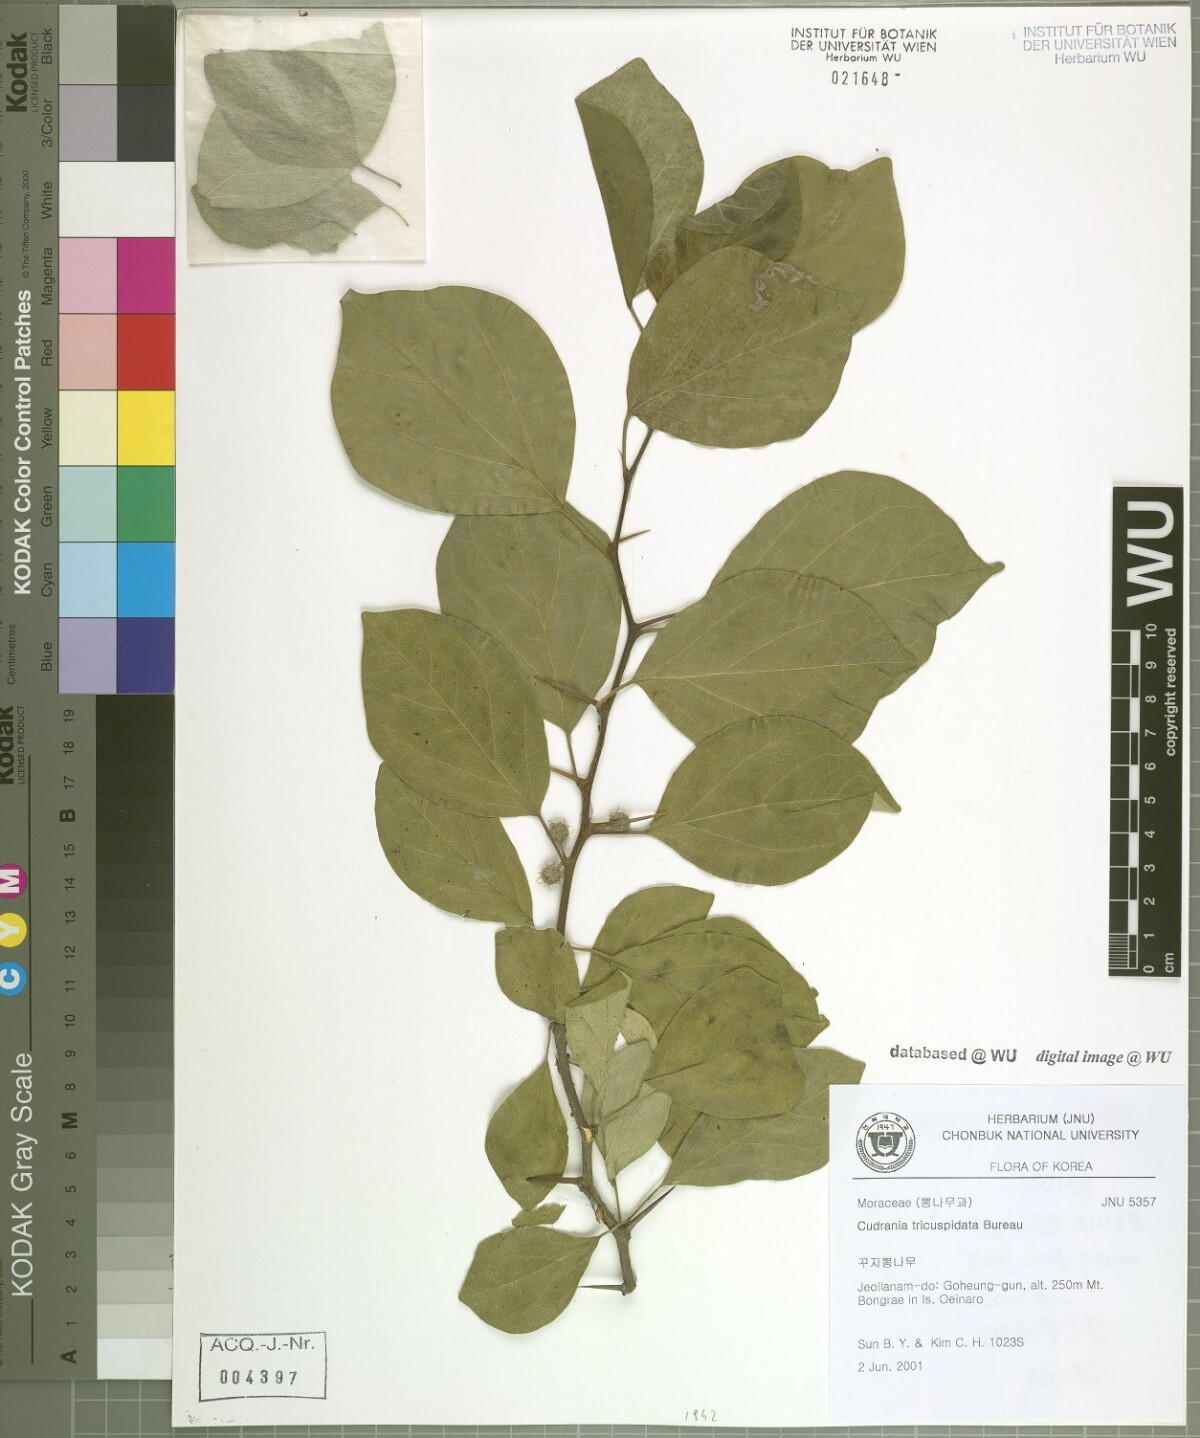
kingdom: Plantae
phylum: Tracheophyta
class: Magnoliopsida
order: Rosales
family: Moraceae
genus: Maclura
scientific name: Maclura tricuspidata
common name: Storehousebush
